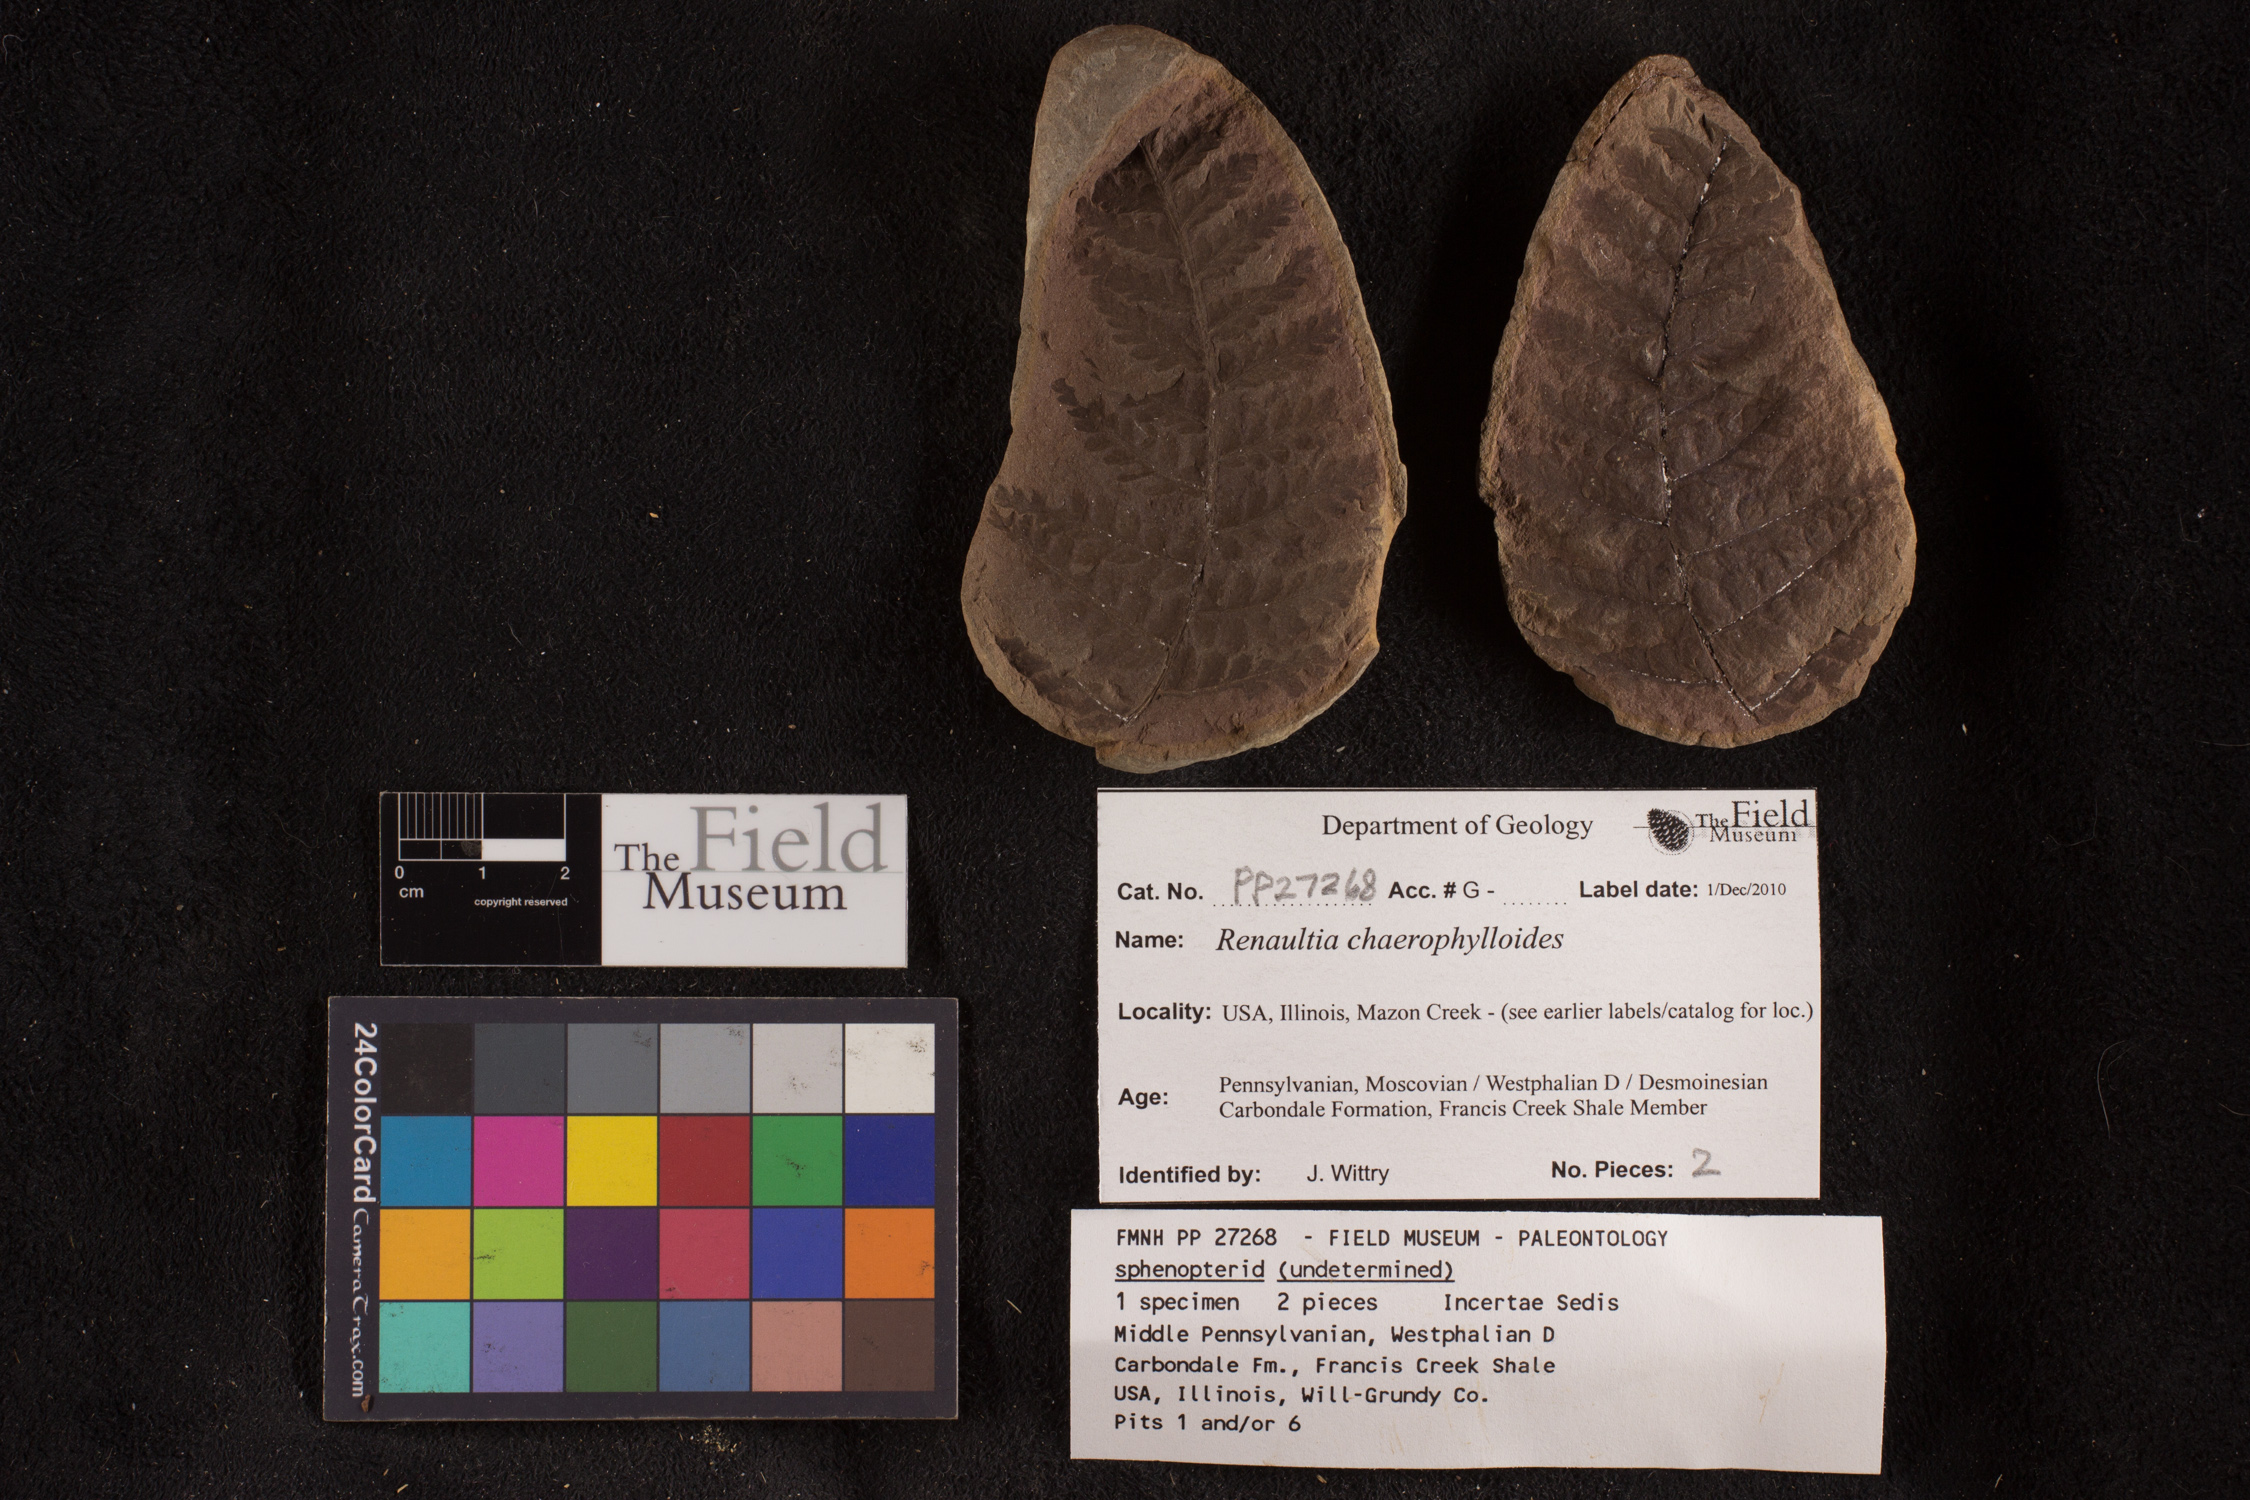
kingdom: Plantae
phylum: Tracheophyta
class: Polypodiopsida
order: Gleicheniales
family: Gleicheniaceae
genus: Oligocarpia
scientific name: Oligocarpia
